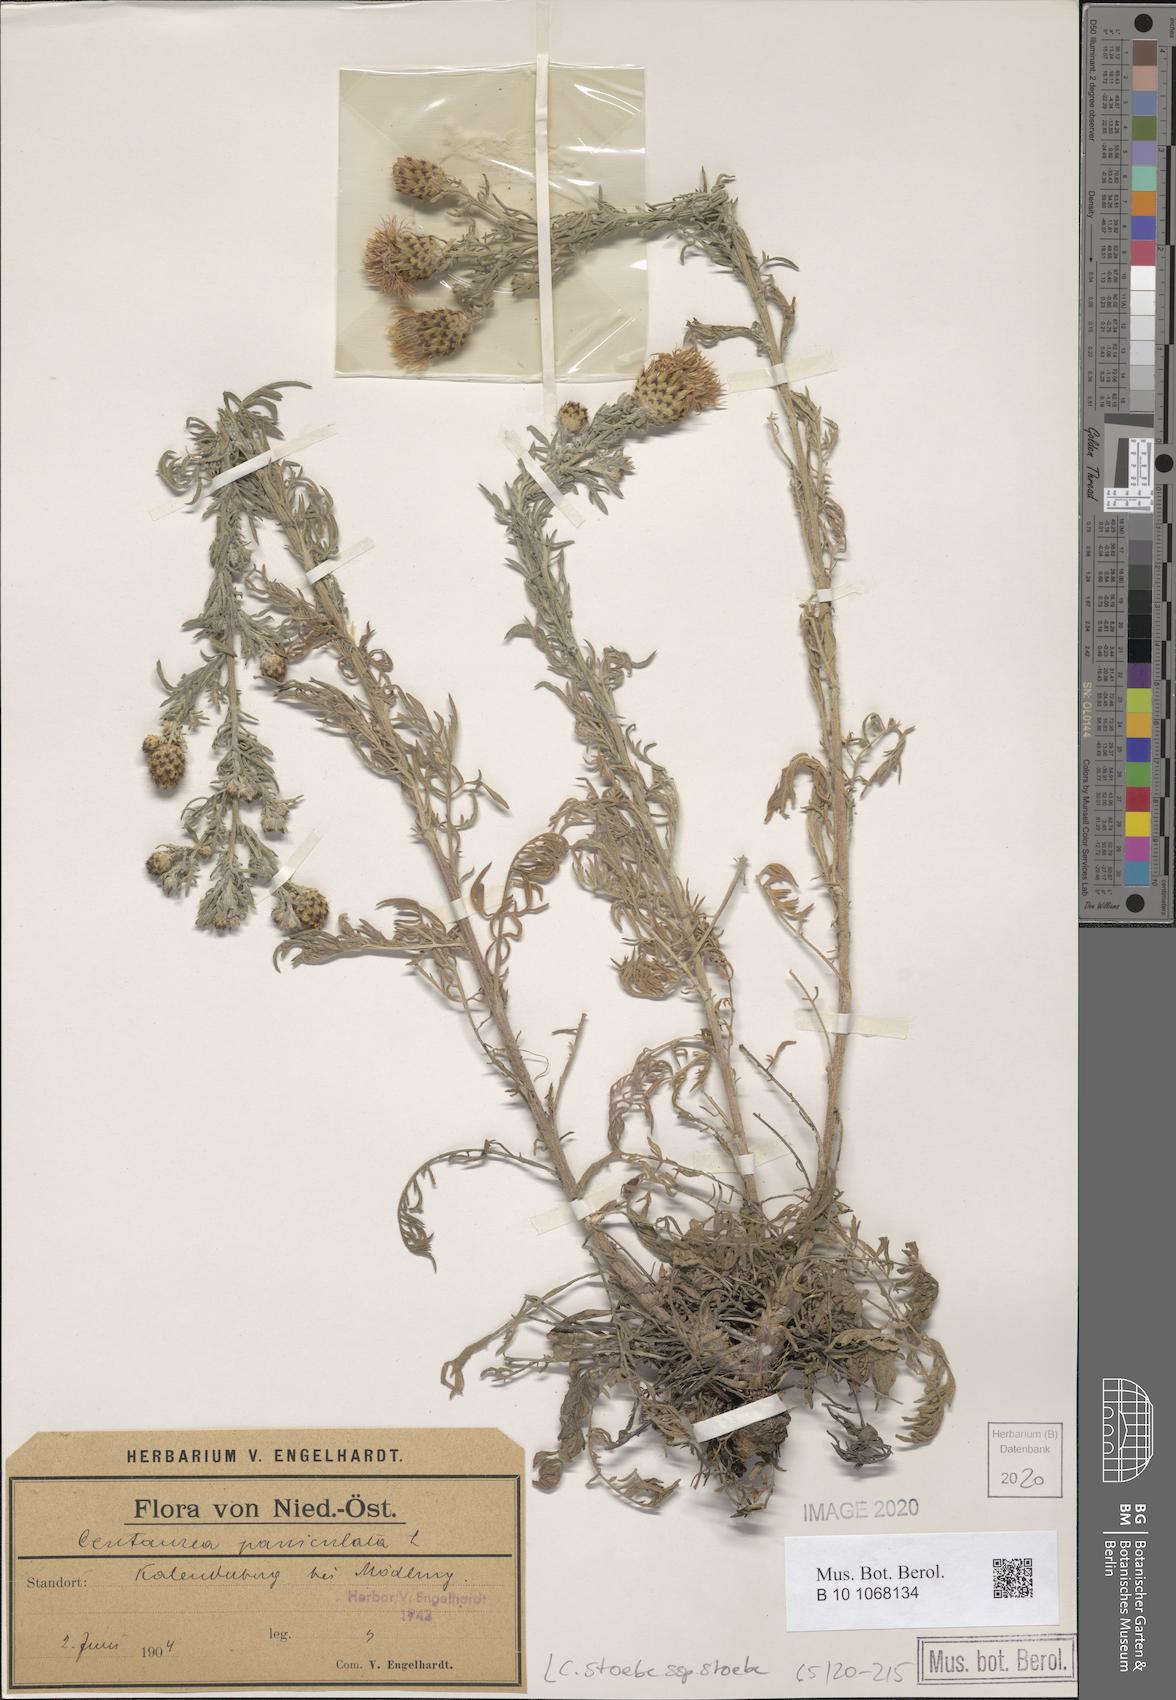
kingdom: Plantae
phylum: Tracheophyta
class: Magnoliopsida
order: Asterales
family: Asteraceae
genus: Centaurea
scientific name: Centaurea stoebe
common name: Spotted knapweed
